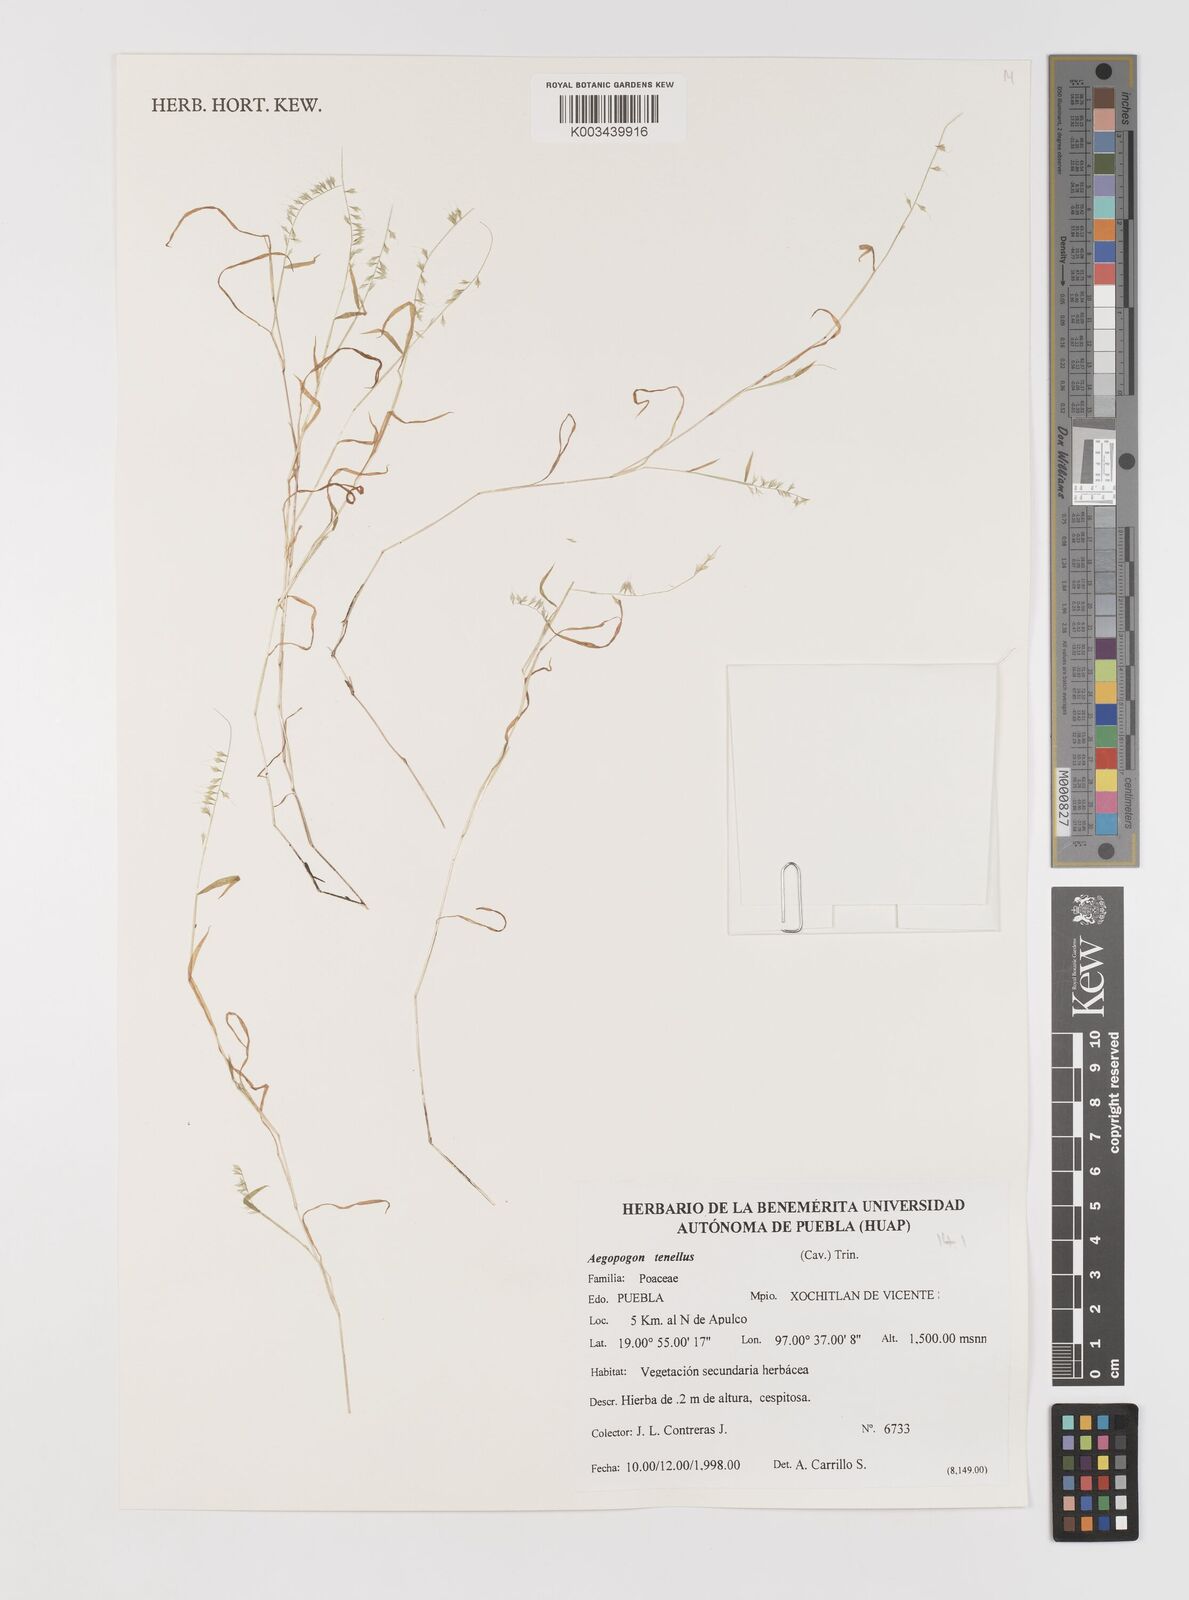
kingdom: Plantae
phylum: Tracheophyta
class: Liliopsida
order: Poales
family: Poaceae
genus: Muhlenbergia
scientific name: Muhlenbergia uniseta
